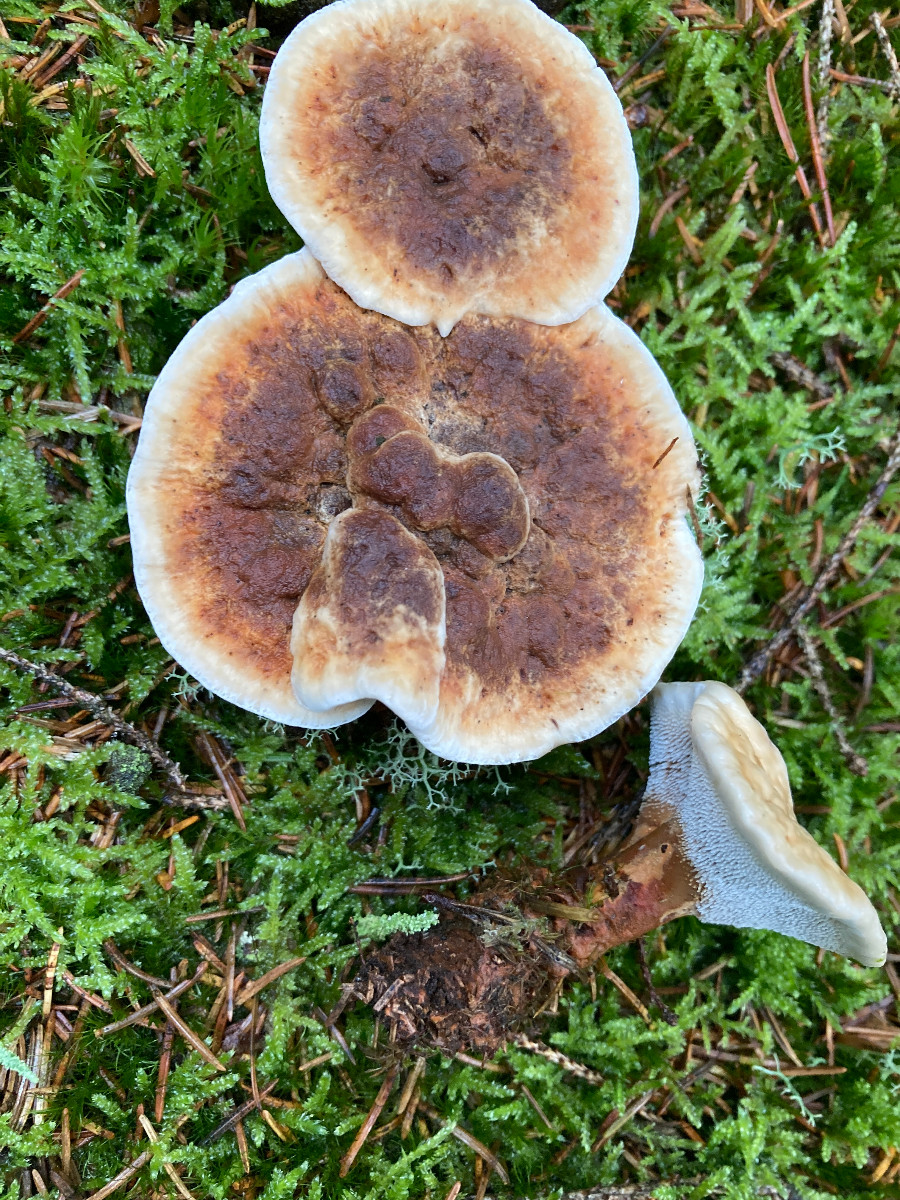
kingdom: Fungi
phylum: Basidiomycota
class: Agaricomycetes
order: Thelephorales
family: Bankeraceae
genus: Hydnellum
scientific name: Hydnellum aurantiacum
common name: orange korkpigsvamp
